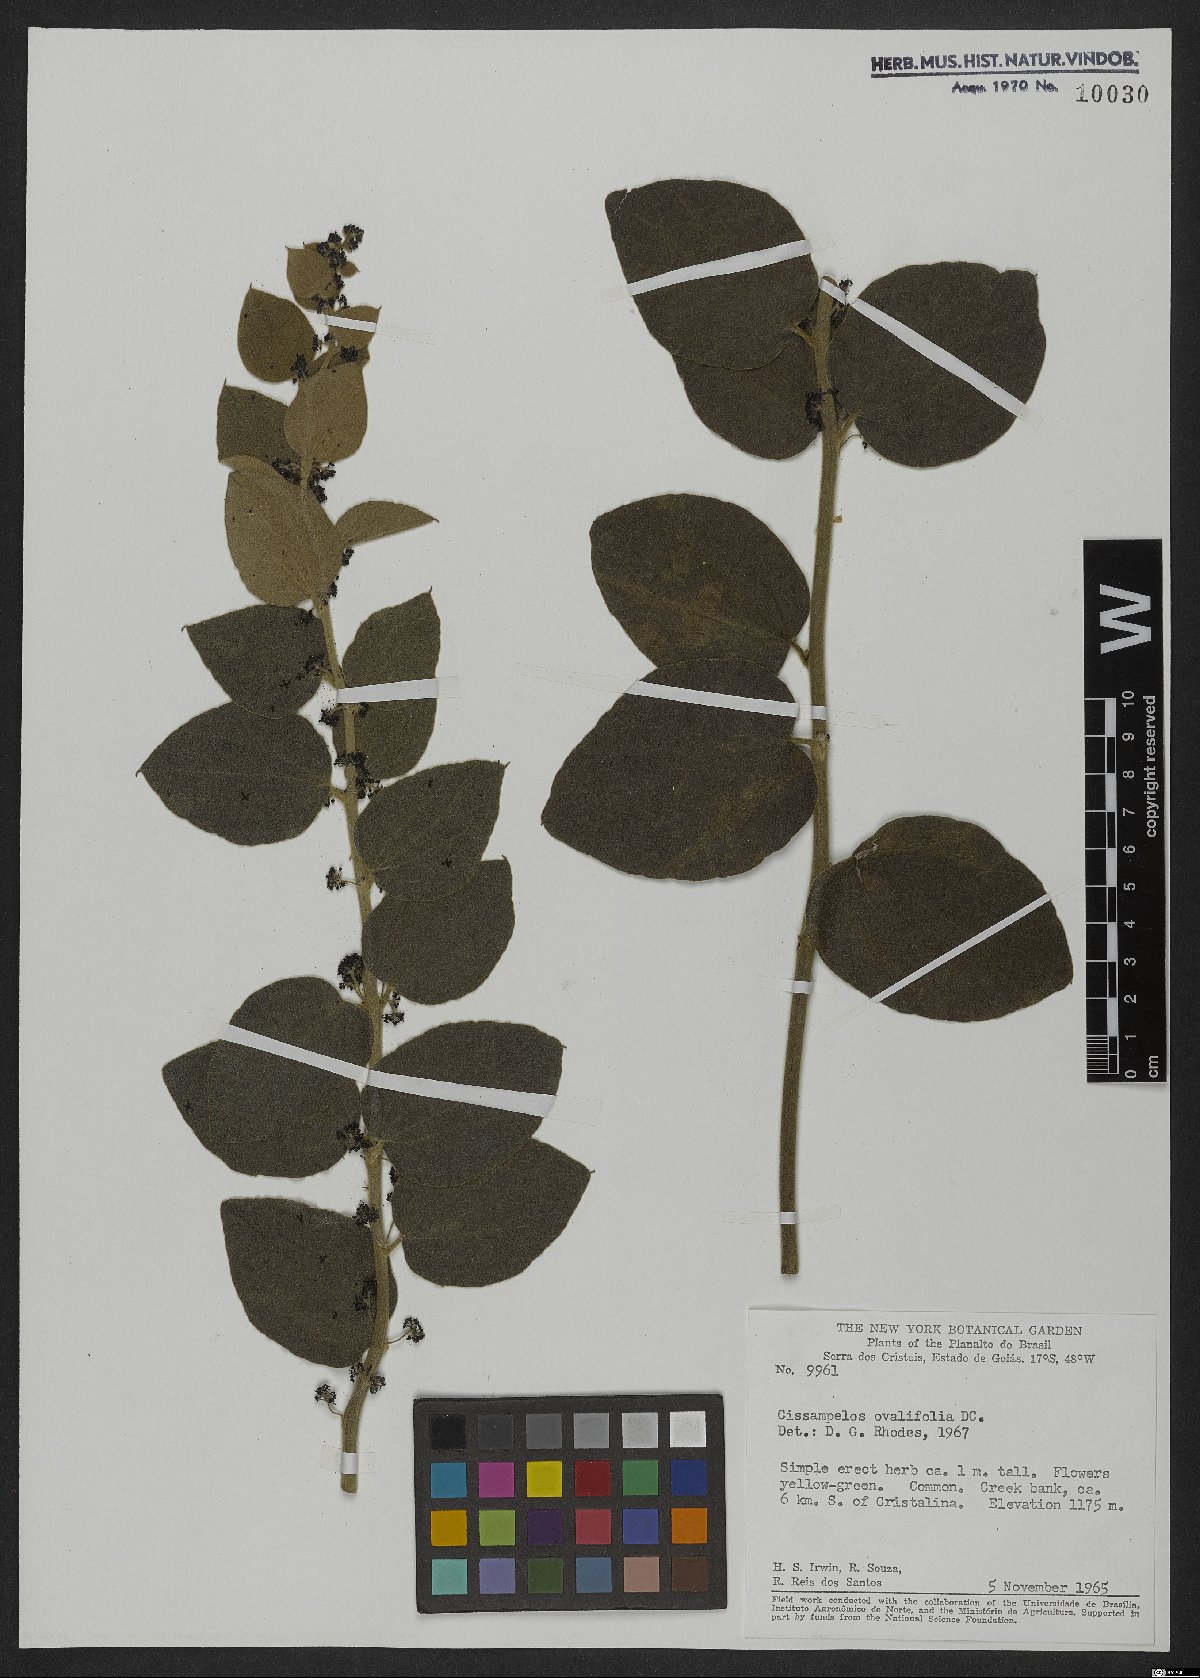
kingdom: Plantae
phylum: Tracheophyta
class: Magnoliopsida
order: Ranunculales
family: Menispermaceae
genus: Cissampelos
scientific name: Cissampelos ovalifolia
